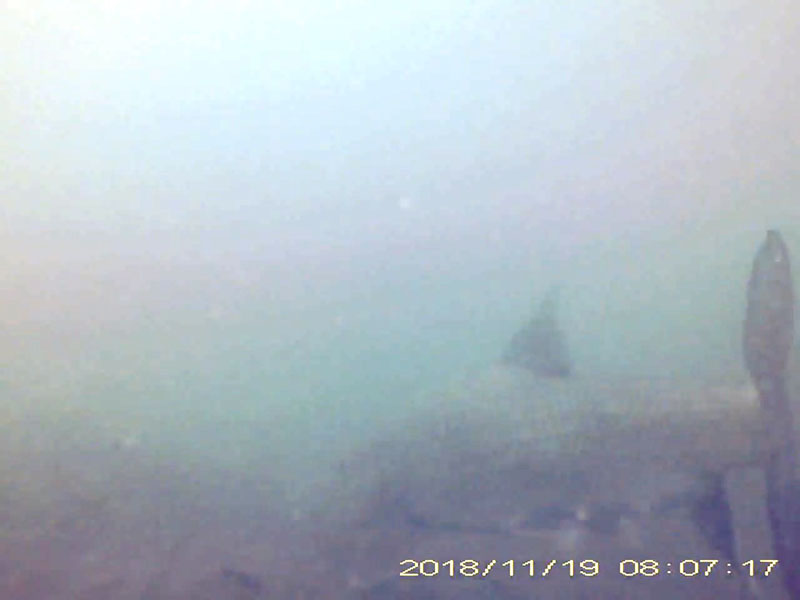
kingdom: Animalia
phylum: Chordata
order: Cypriniformes
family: Cyprinidae
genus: Hemibarbus
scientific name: Hemibarbus labeo
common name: ニゴイ
